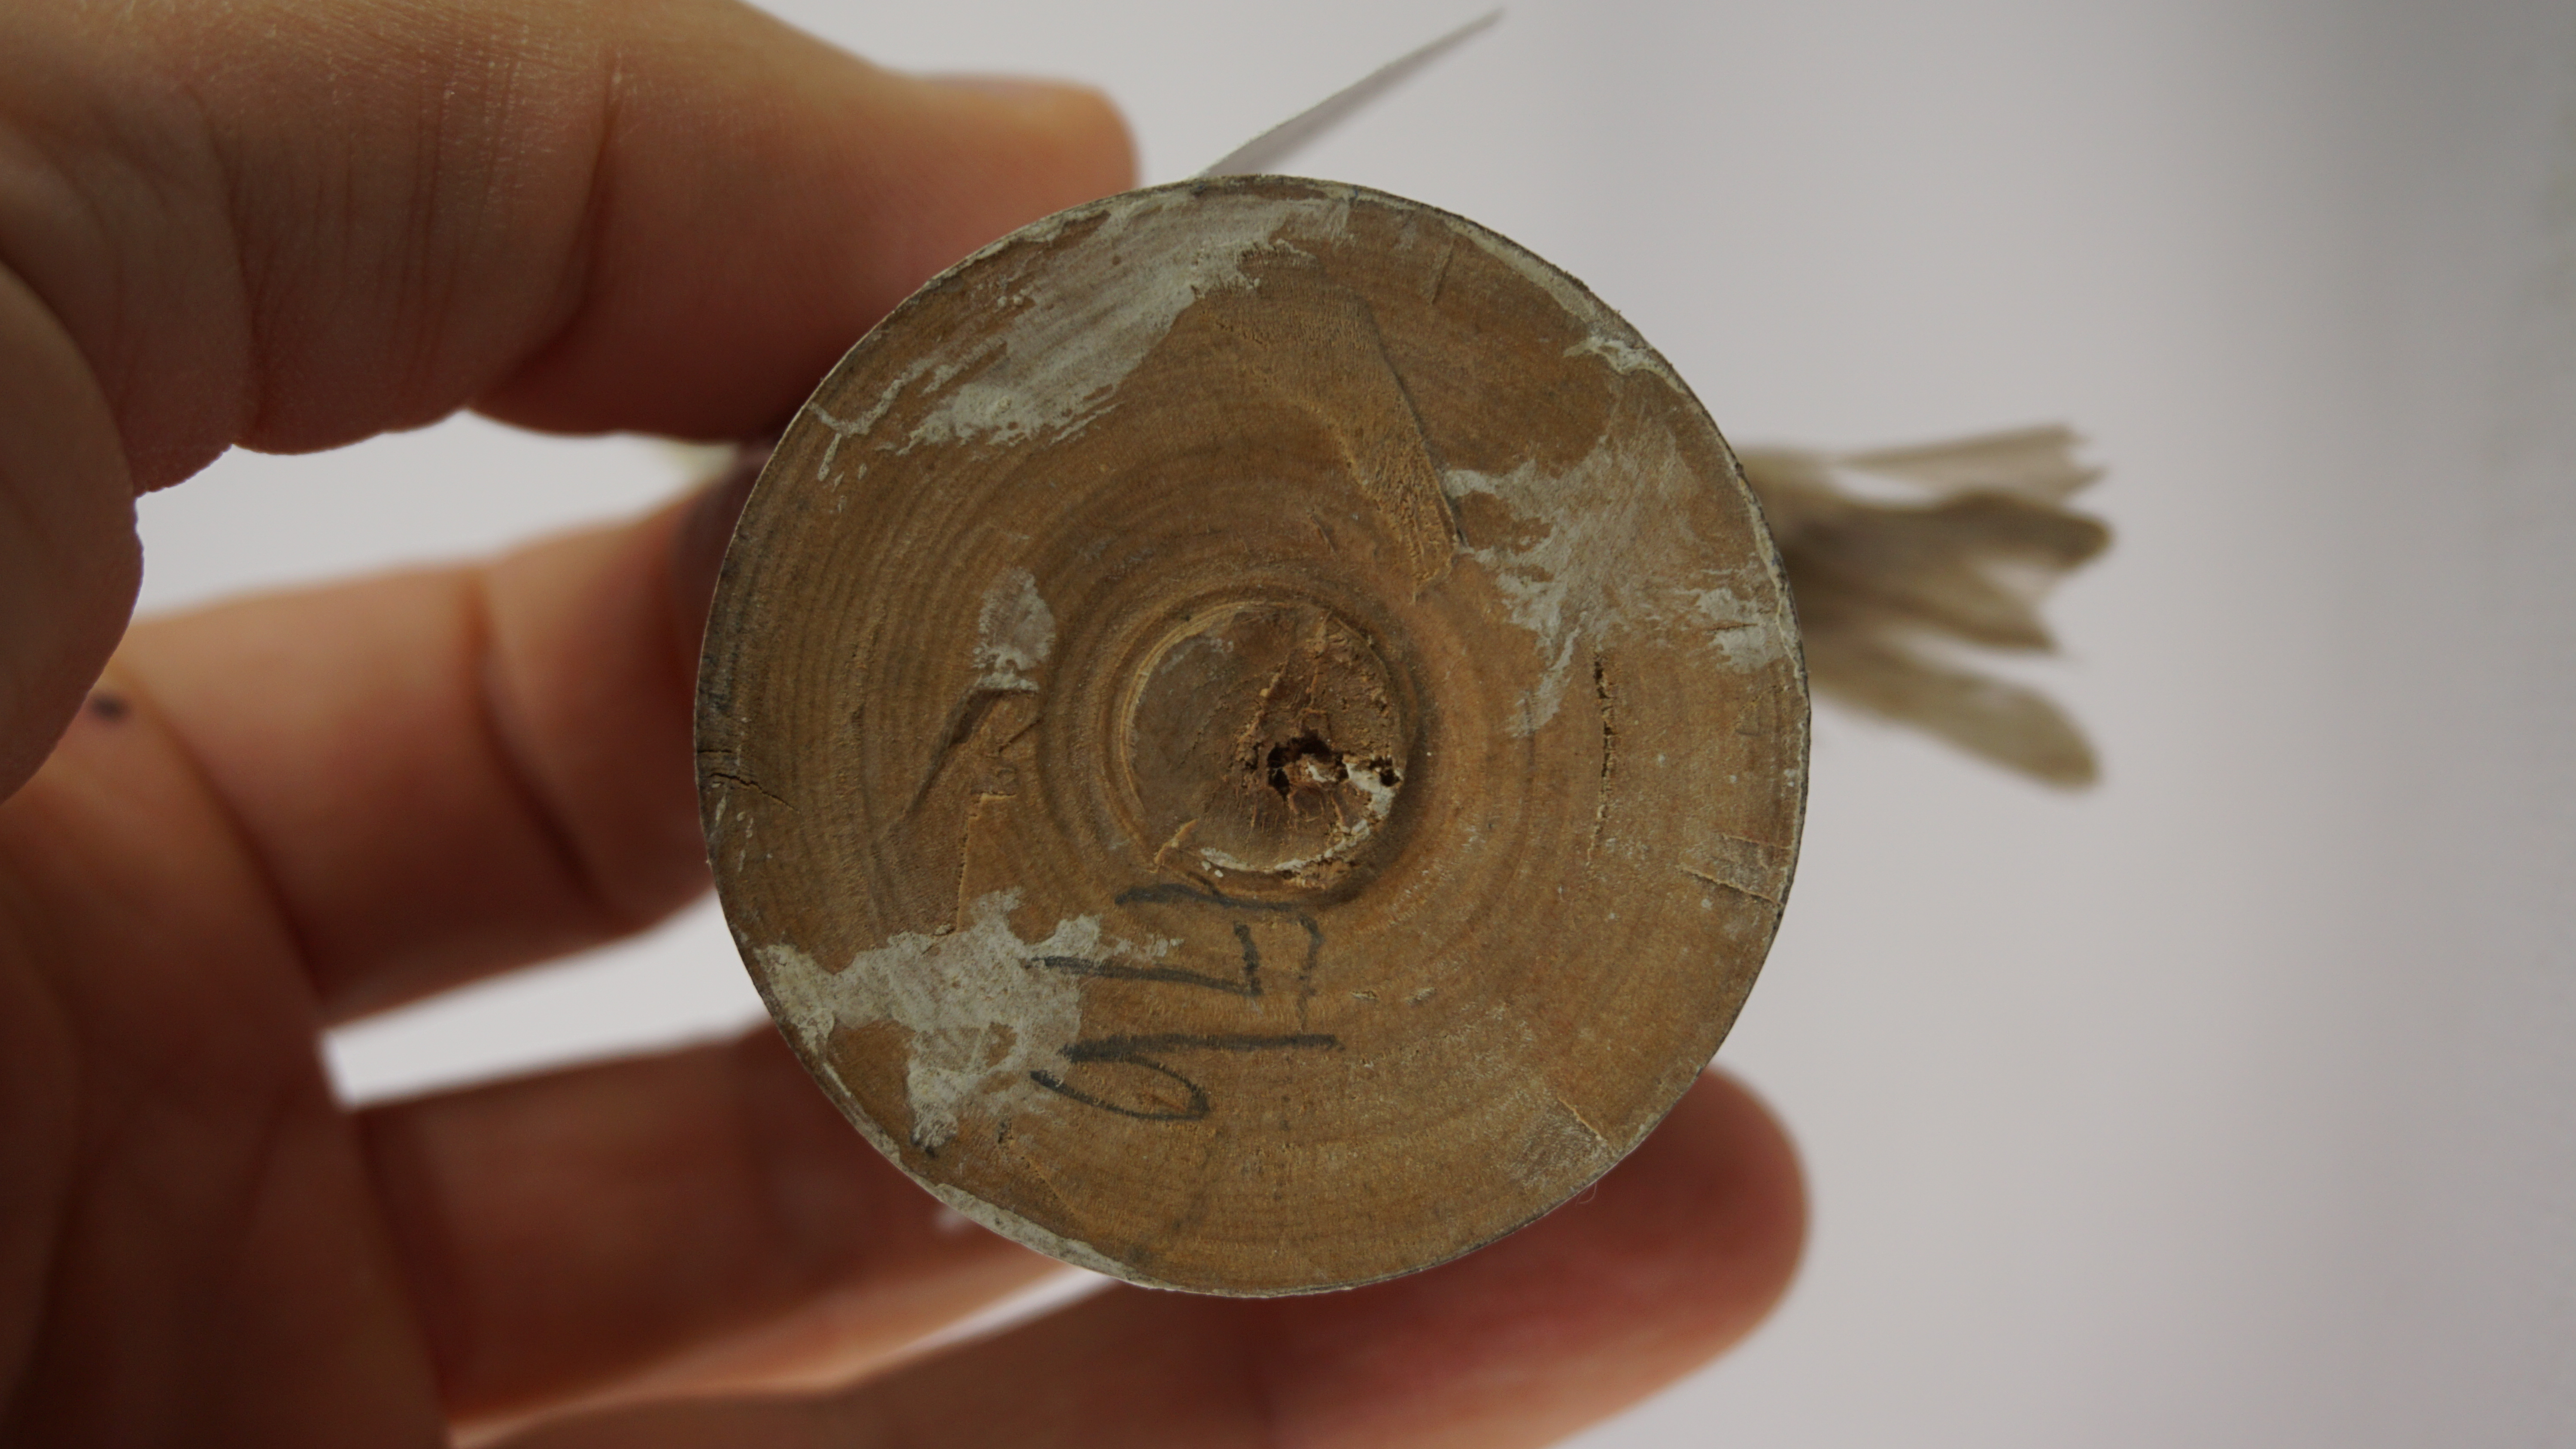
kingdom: Animalia
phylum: Chordata
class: Aves
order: Passeriformes
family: Phylloscopidae
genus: Phylloscopus
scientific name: Phylloscopus collybita
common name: Common chiffchaff
